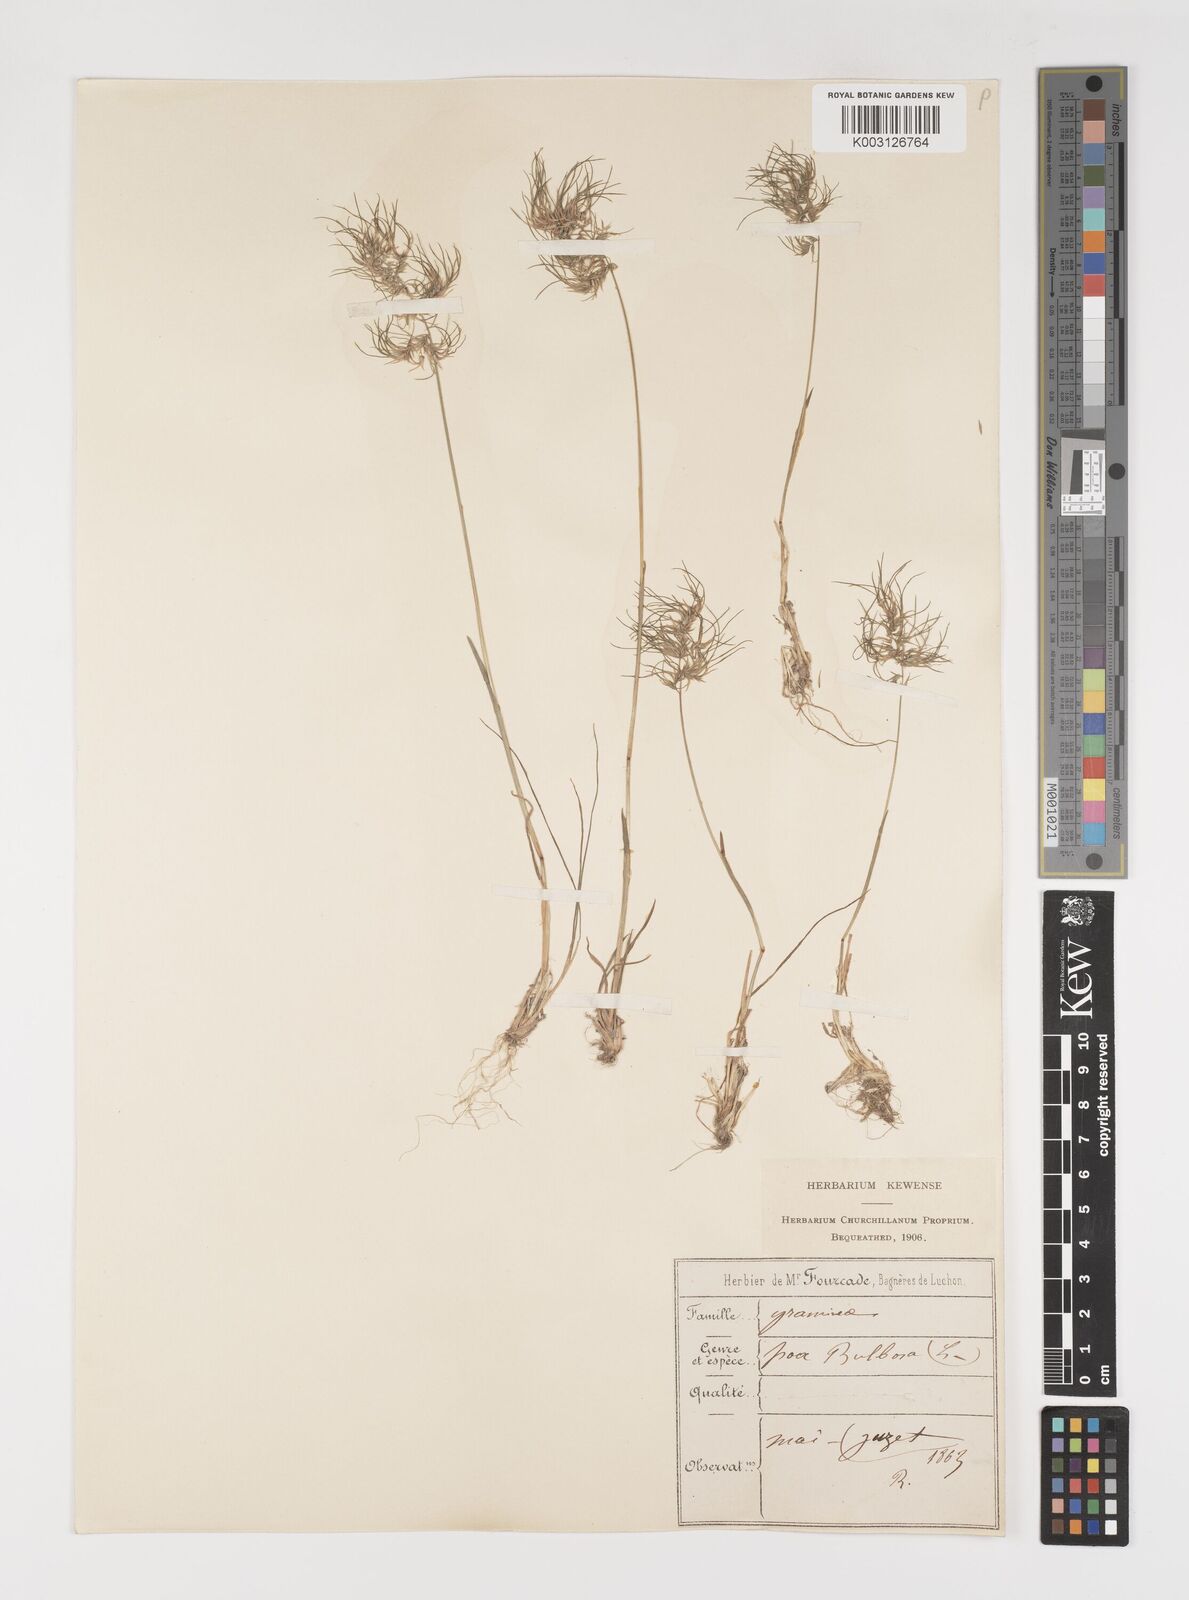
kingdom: Plantae
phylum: Tracheophyta
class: Liliopsida
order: Poales
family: Poaceae
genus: Poa
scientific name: Poa bulbosa
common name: Bulbous bluegrass
